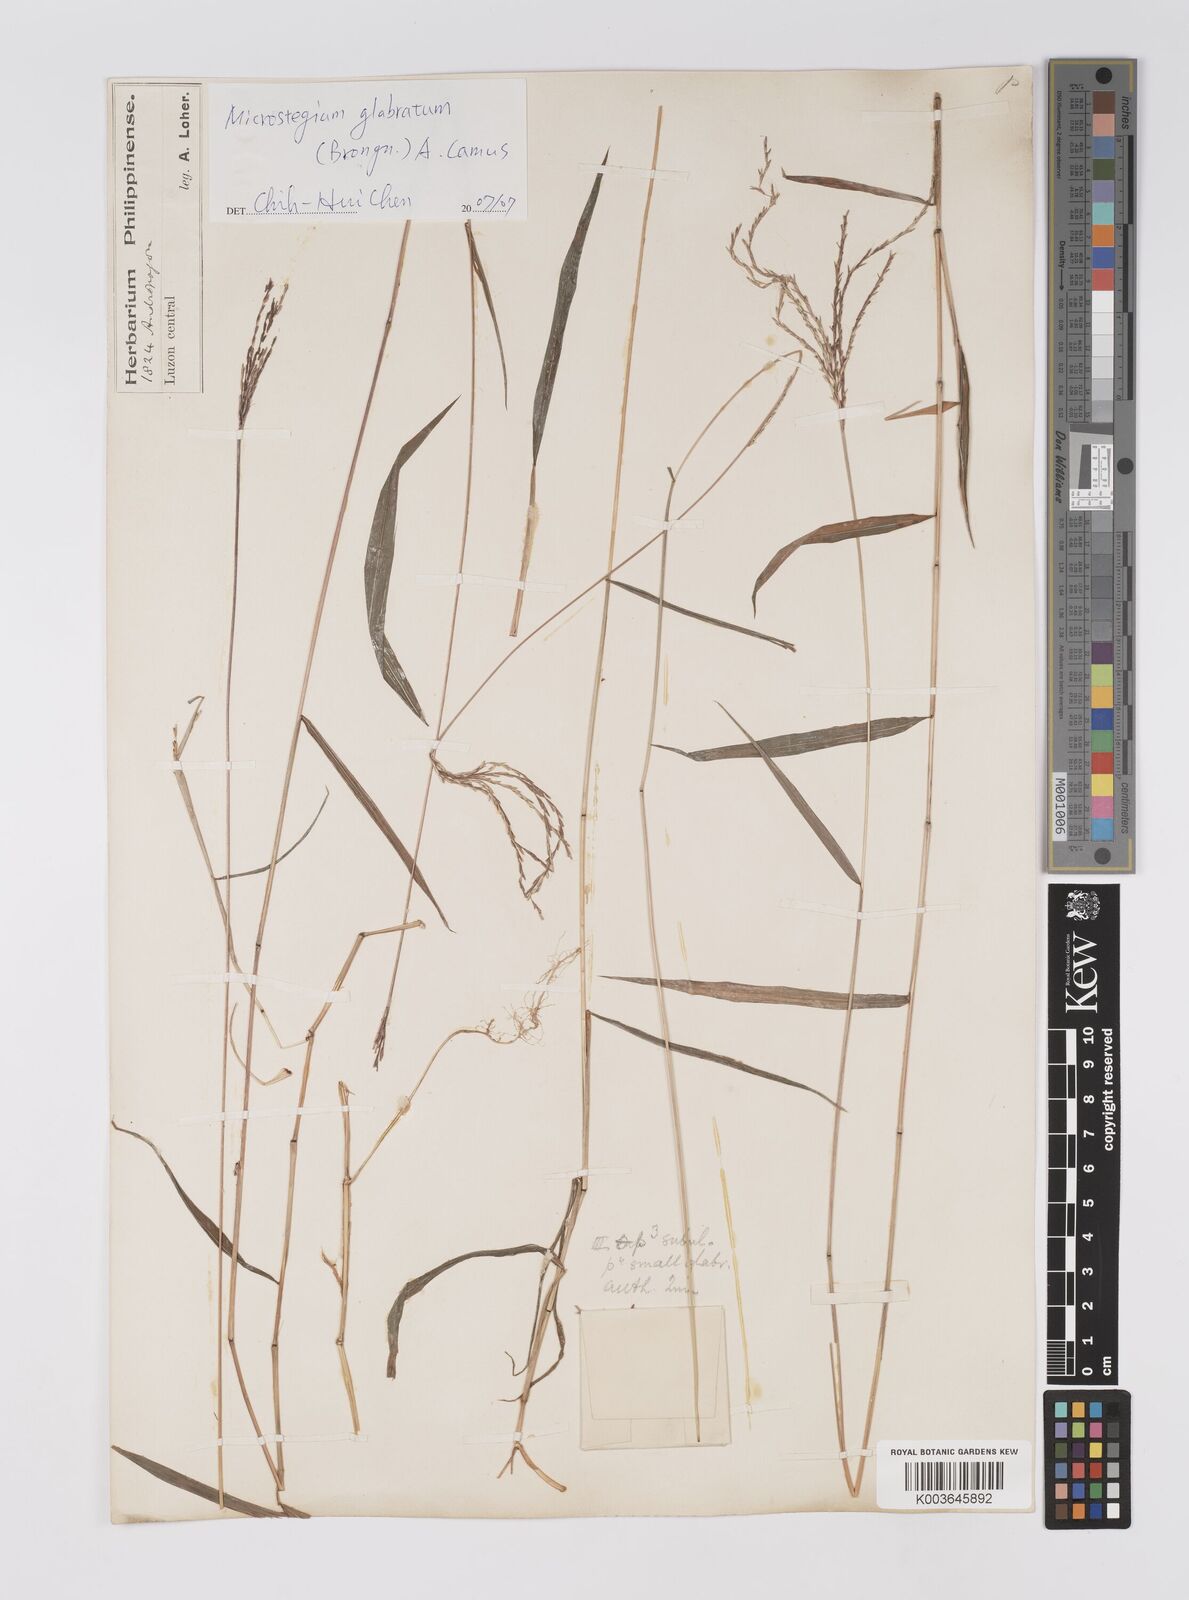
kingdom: Plantae
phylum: Tracheophyta
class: Liliopsida
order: Poales
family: Poaceae
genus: Microstegium
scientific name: Microstegium glabratum
